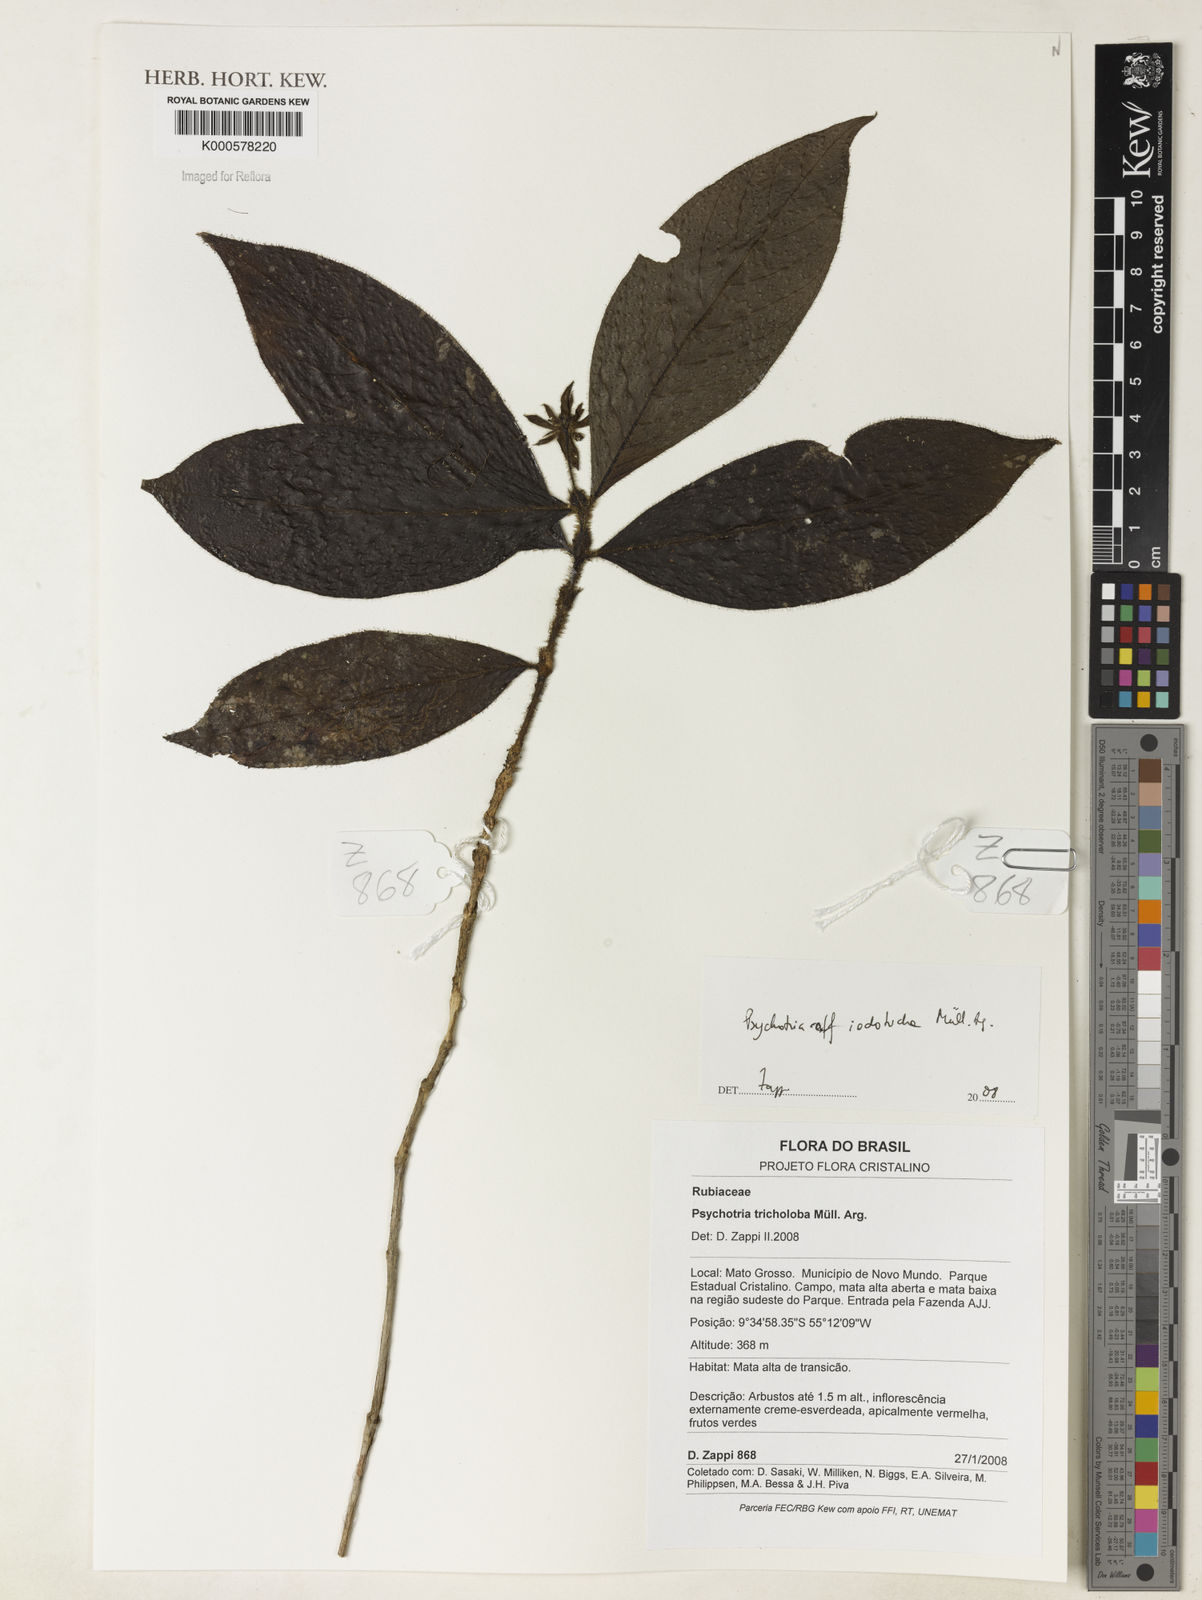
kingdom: Plantae
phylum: Tracheophyta
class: Magnoliopsida
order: Gentianales
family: Rubiaceae
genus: Psychotria
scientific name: Psychotria
